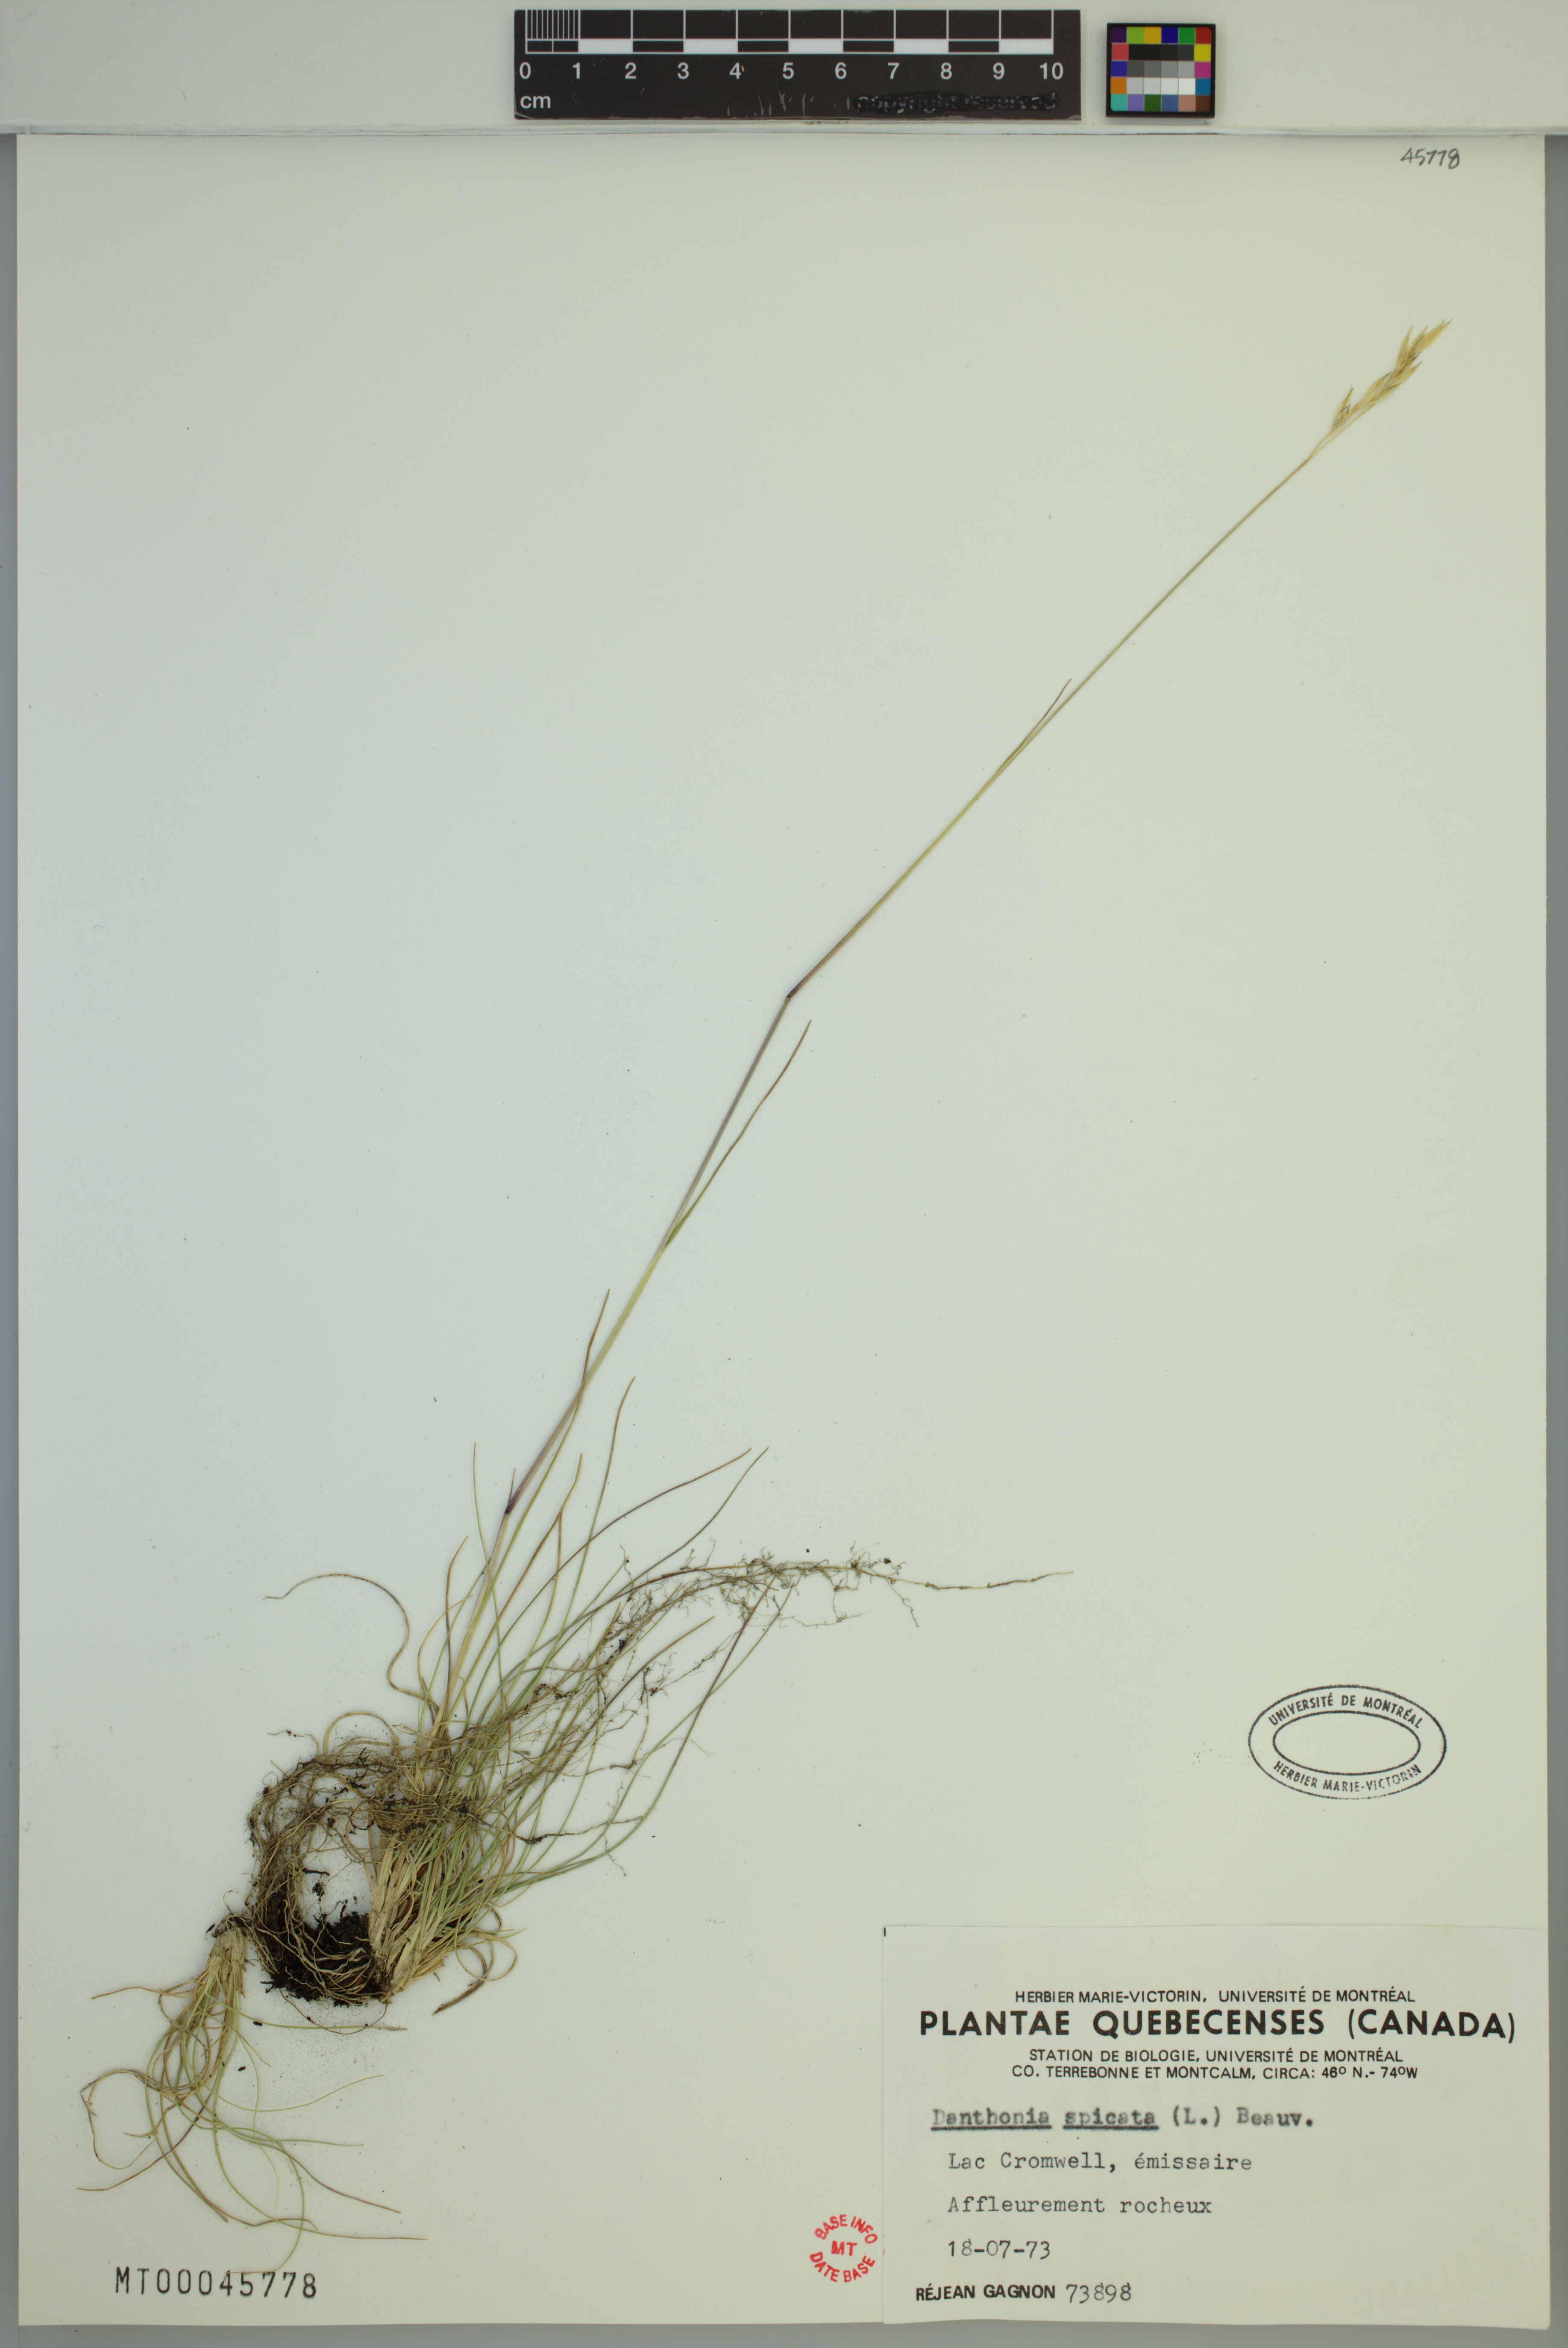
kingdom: Plantae
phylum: Tracheophyta
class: Liliopsida
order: Poales
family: Poaceae
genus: Danthonia
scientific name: Danthonia spicata
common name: Common wild oatgrass
